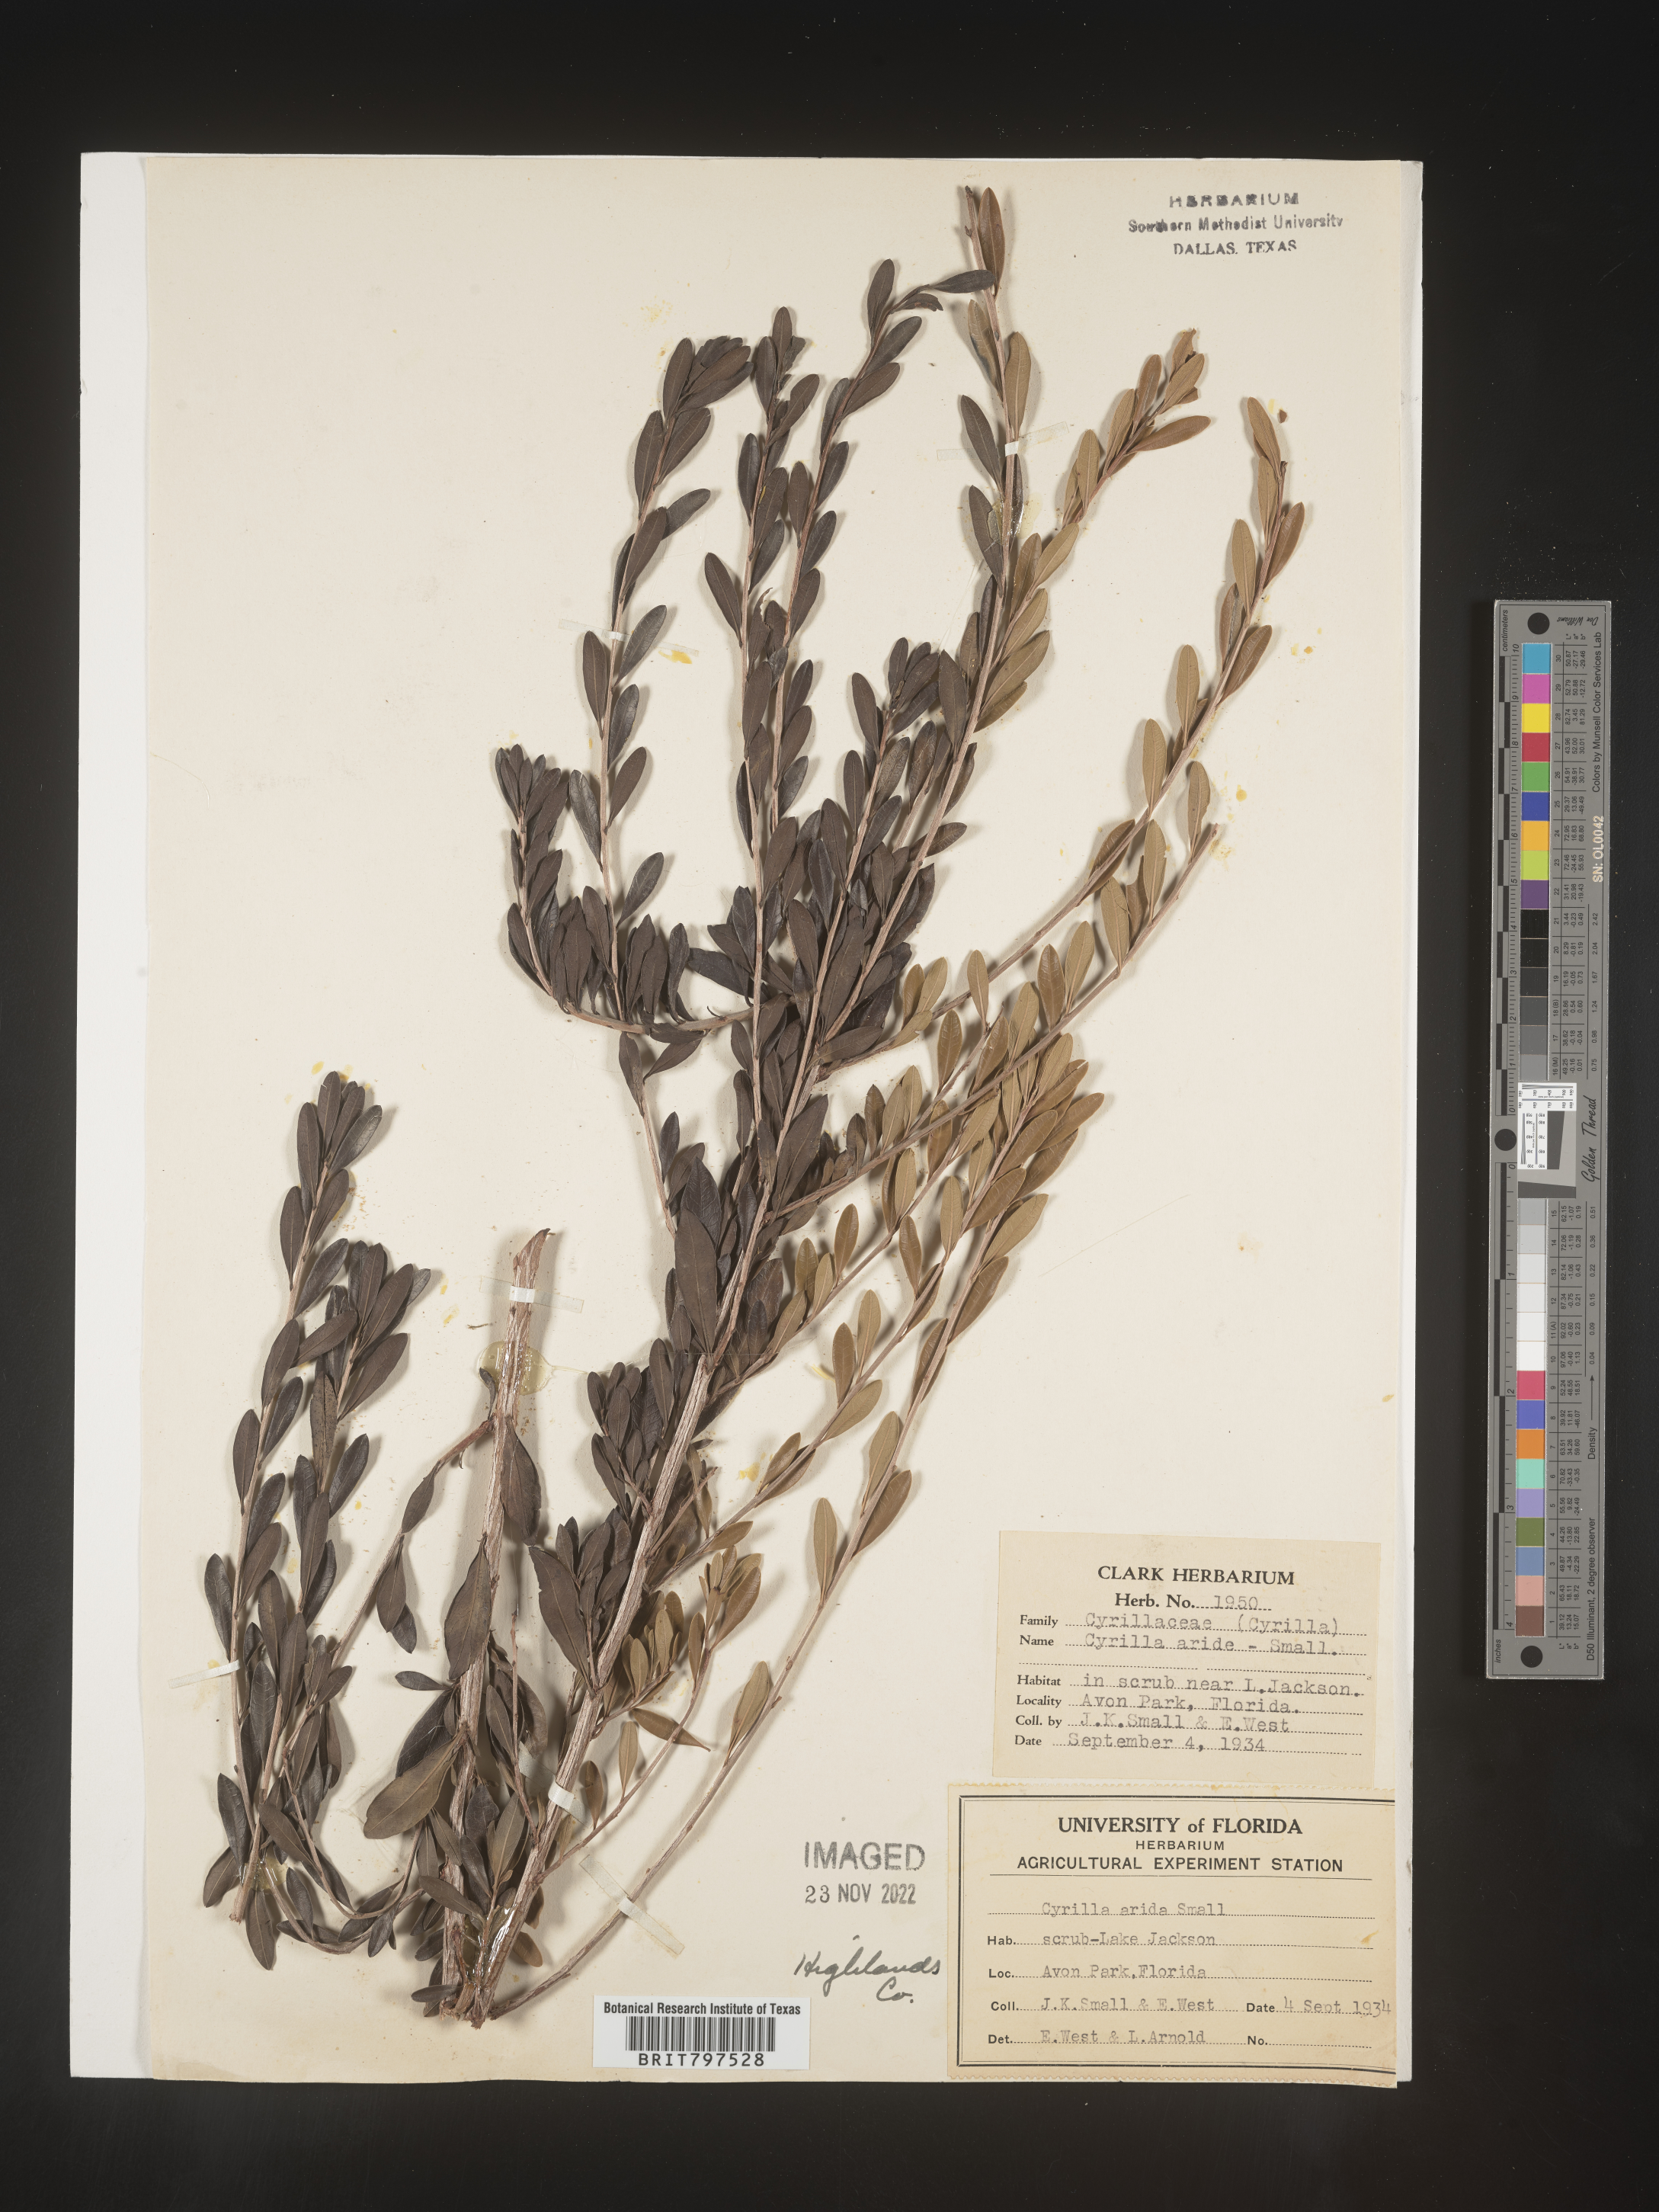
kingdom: Plantae
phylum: Tracheophyta
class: Magnoliopsida
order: Ericales
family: Cyrillaceae
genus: Cyrilla
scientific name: Cyrilla racemiflora
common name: Black titi
